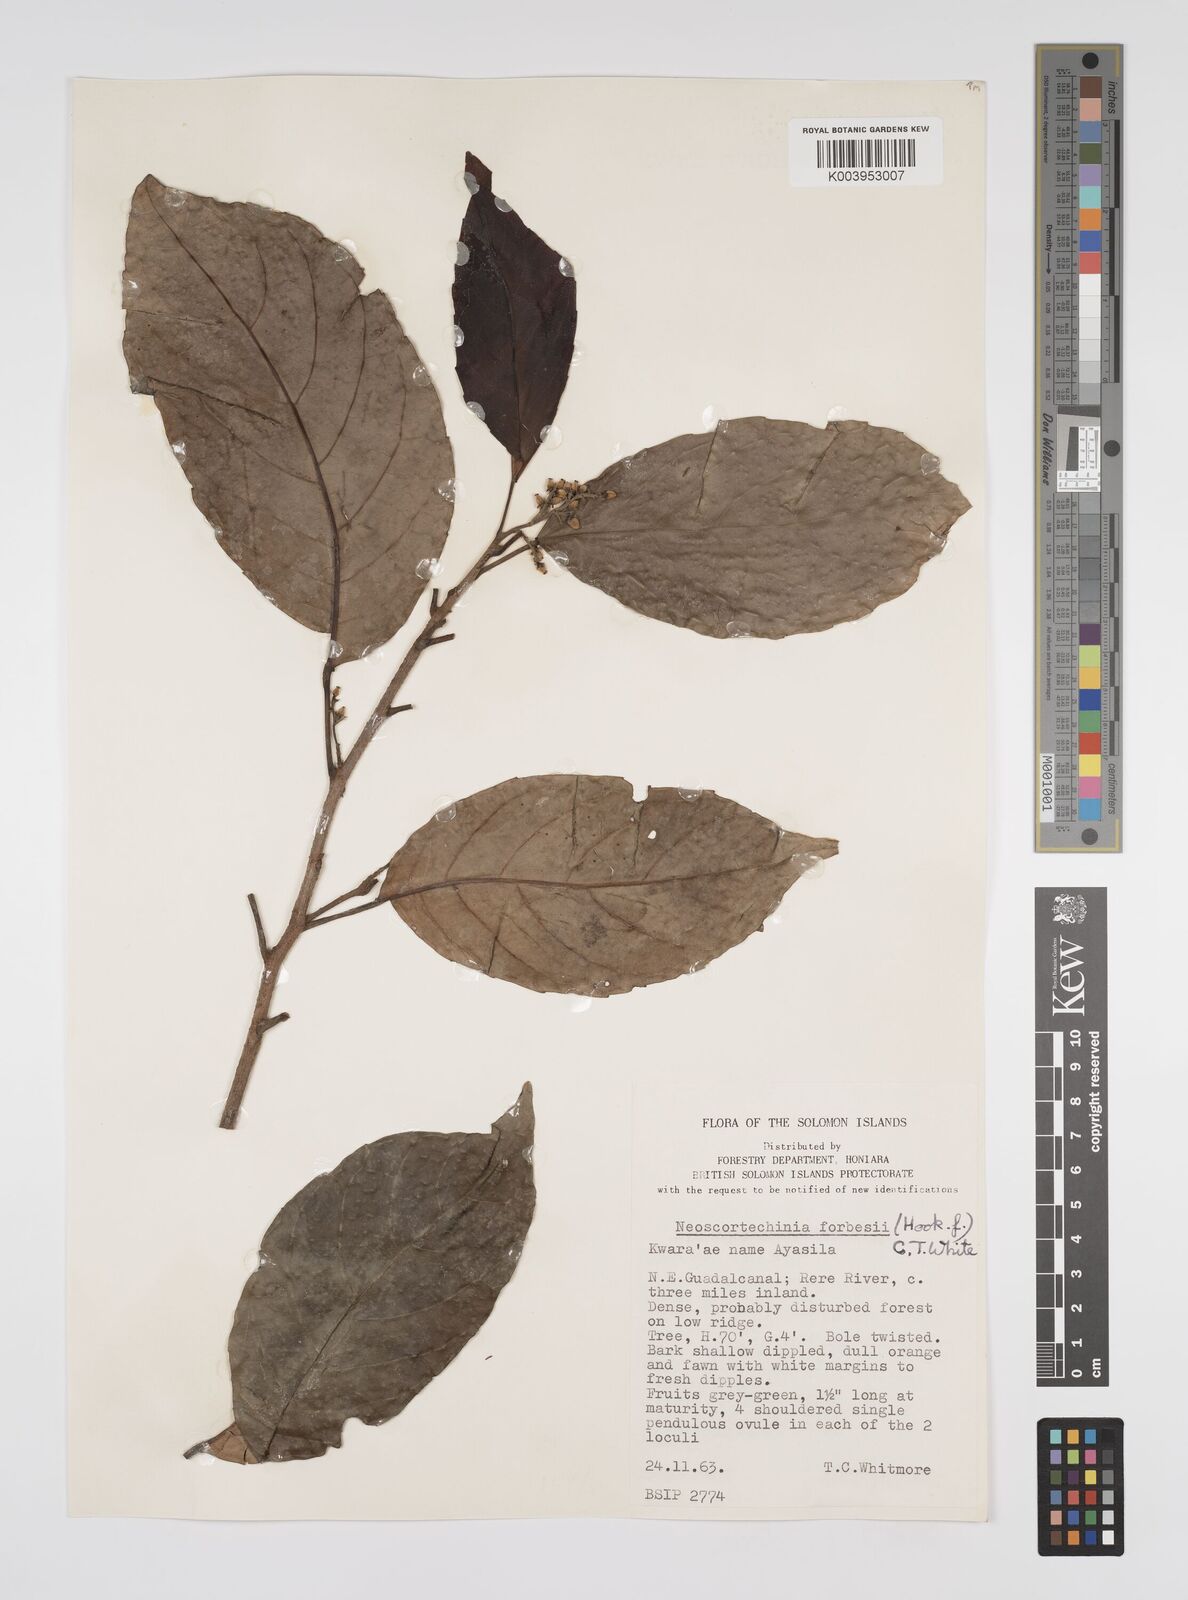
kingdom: Plantae
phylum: Tracheophyta
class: Magnoliopsida
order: Malpighiales
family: Euphorbiaceae
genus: Neoscortechinia
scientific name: Neoscortechinia forbesii
